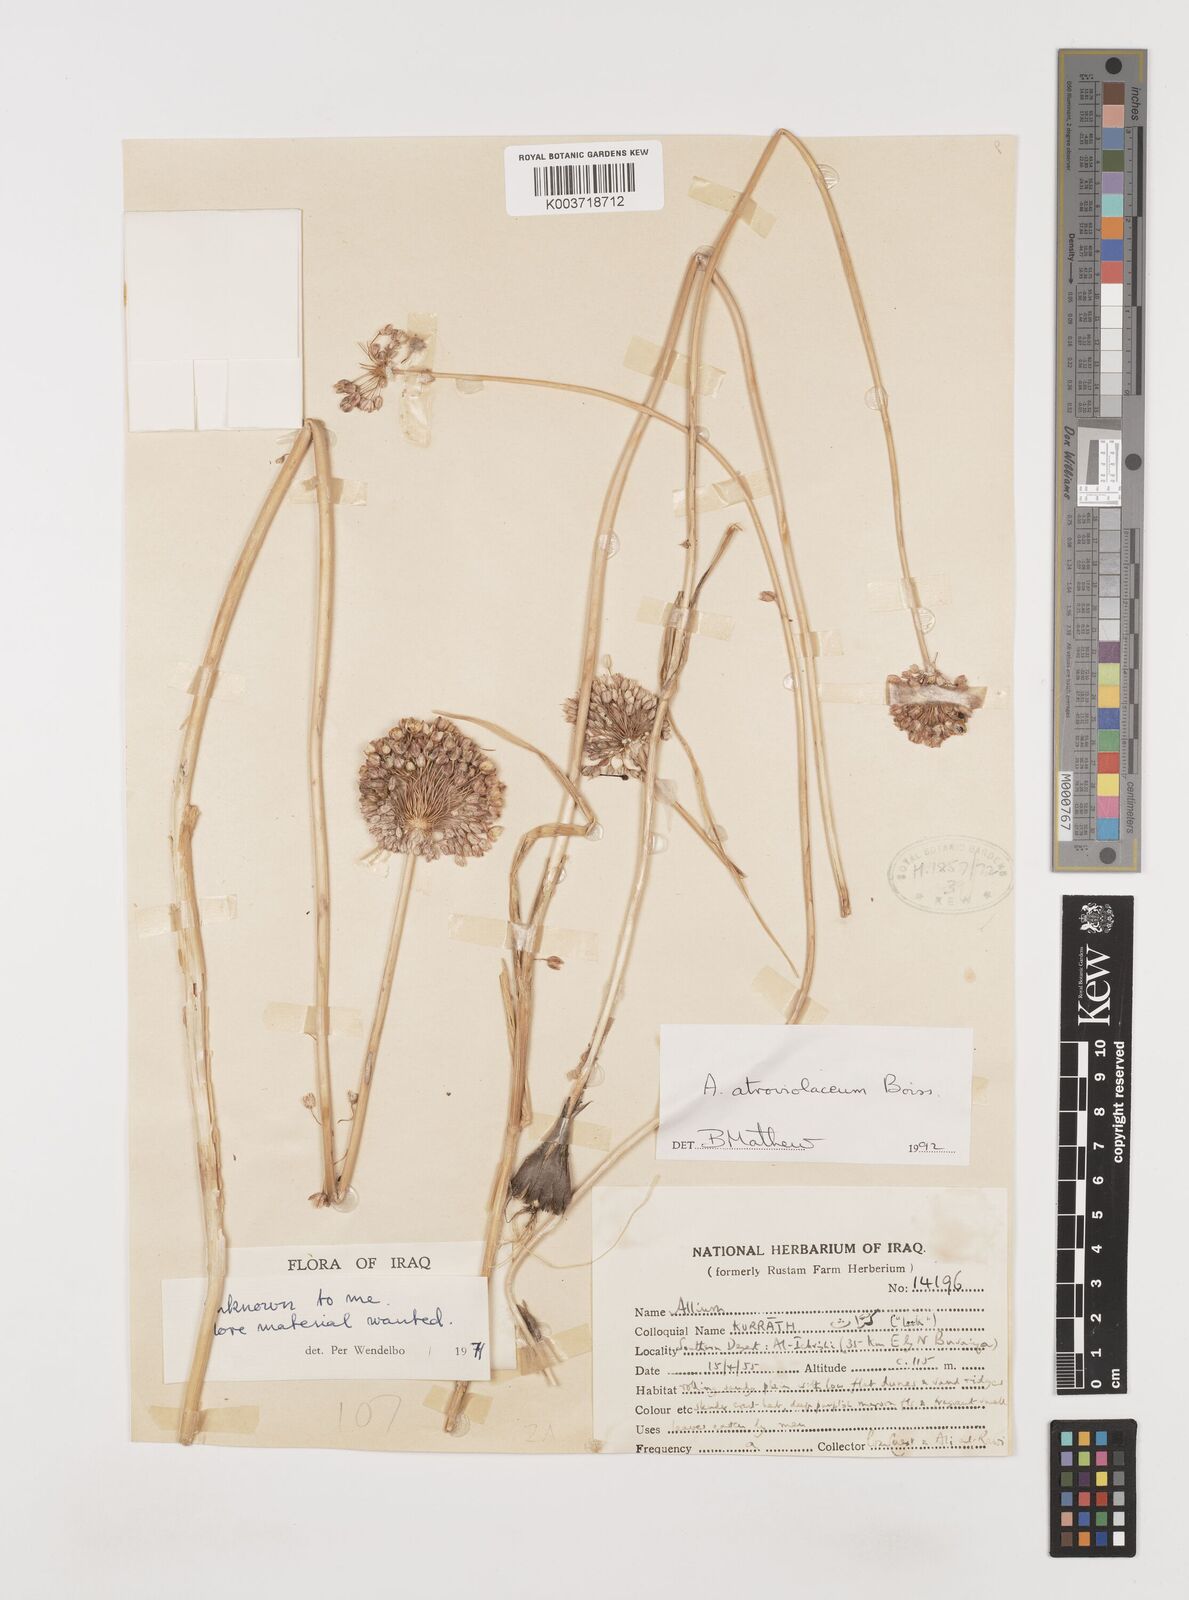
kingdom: Plantae
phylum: Tracheophyta
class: Liliopsida
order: Asparagales
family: Amaryllidaceae
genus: Allium
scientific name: Allium atroviolaceum
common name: Broadleaf wild leek
